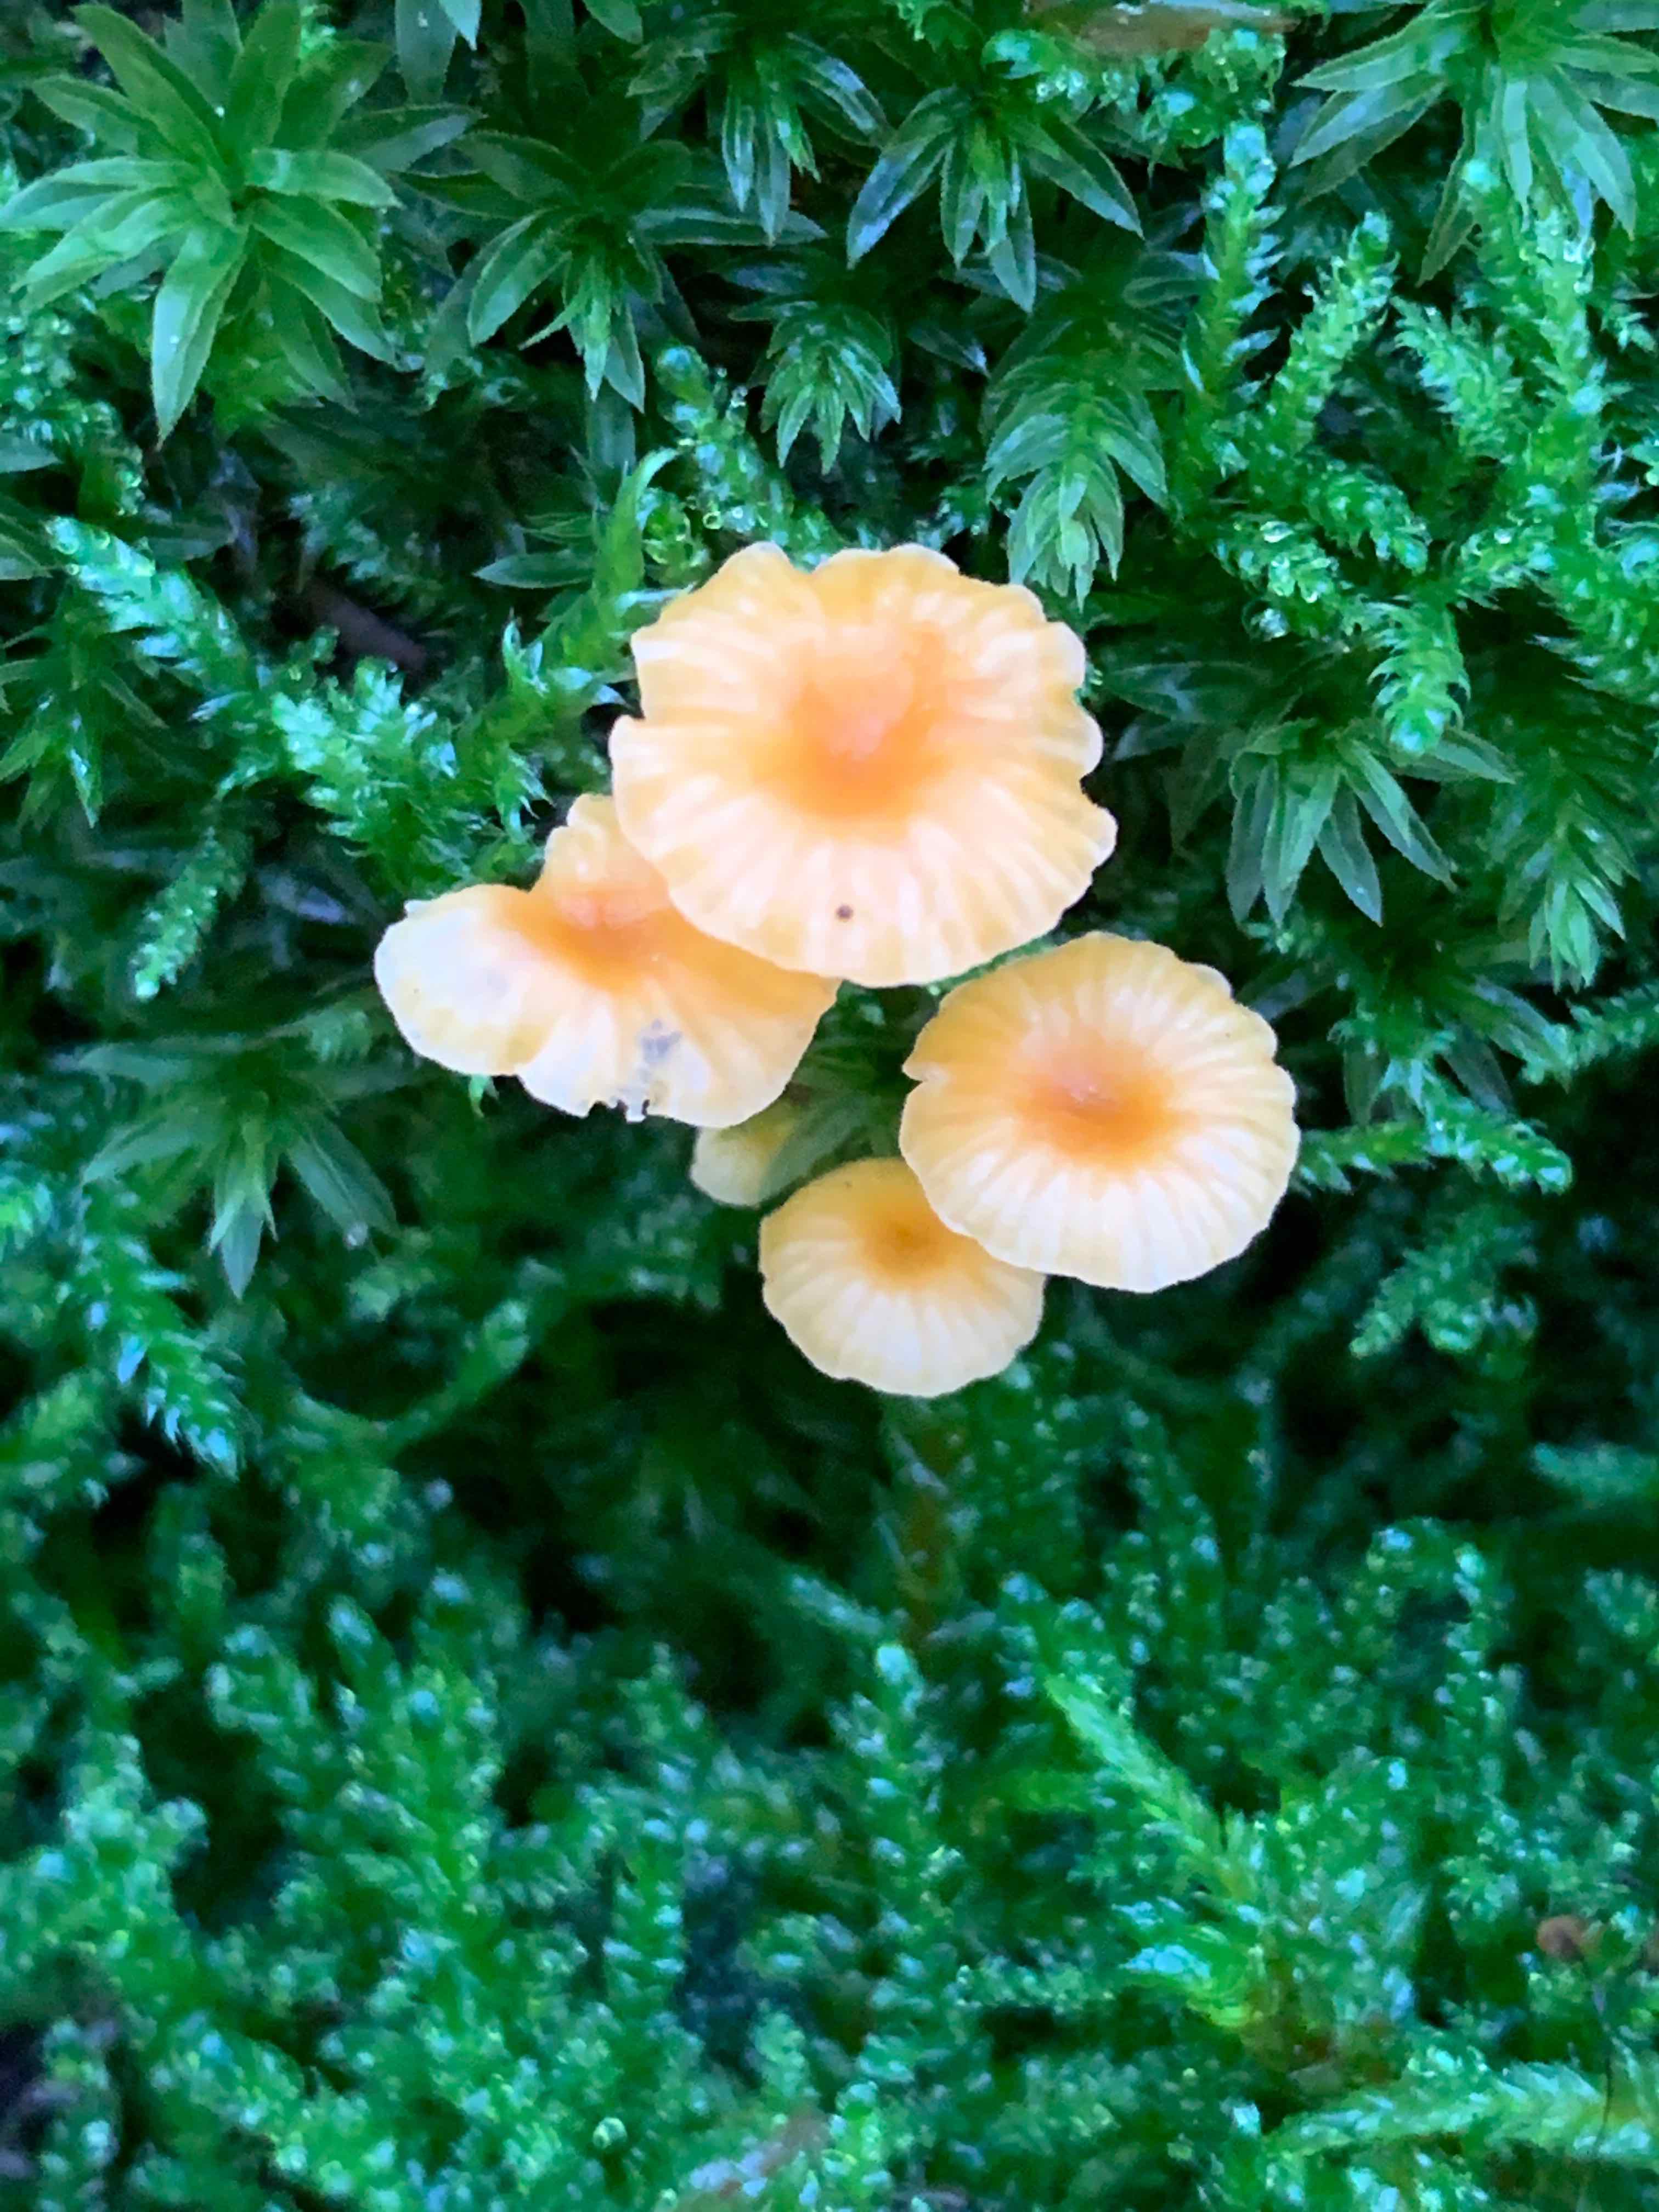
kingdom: Fungi
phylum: Basidiomycota
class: Agaricomycetes
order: Hymenochaetales
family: Rickenellaceae
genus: Rickenella
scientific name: Rickenella fibula
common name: orange mosnavlehat
